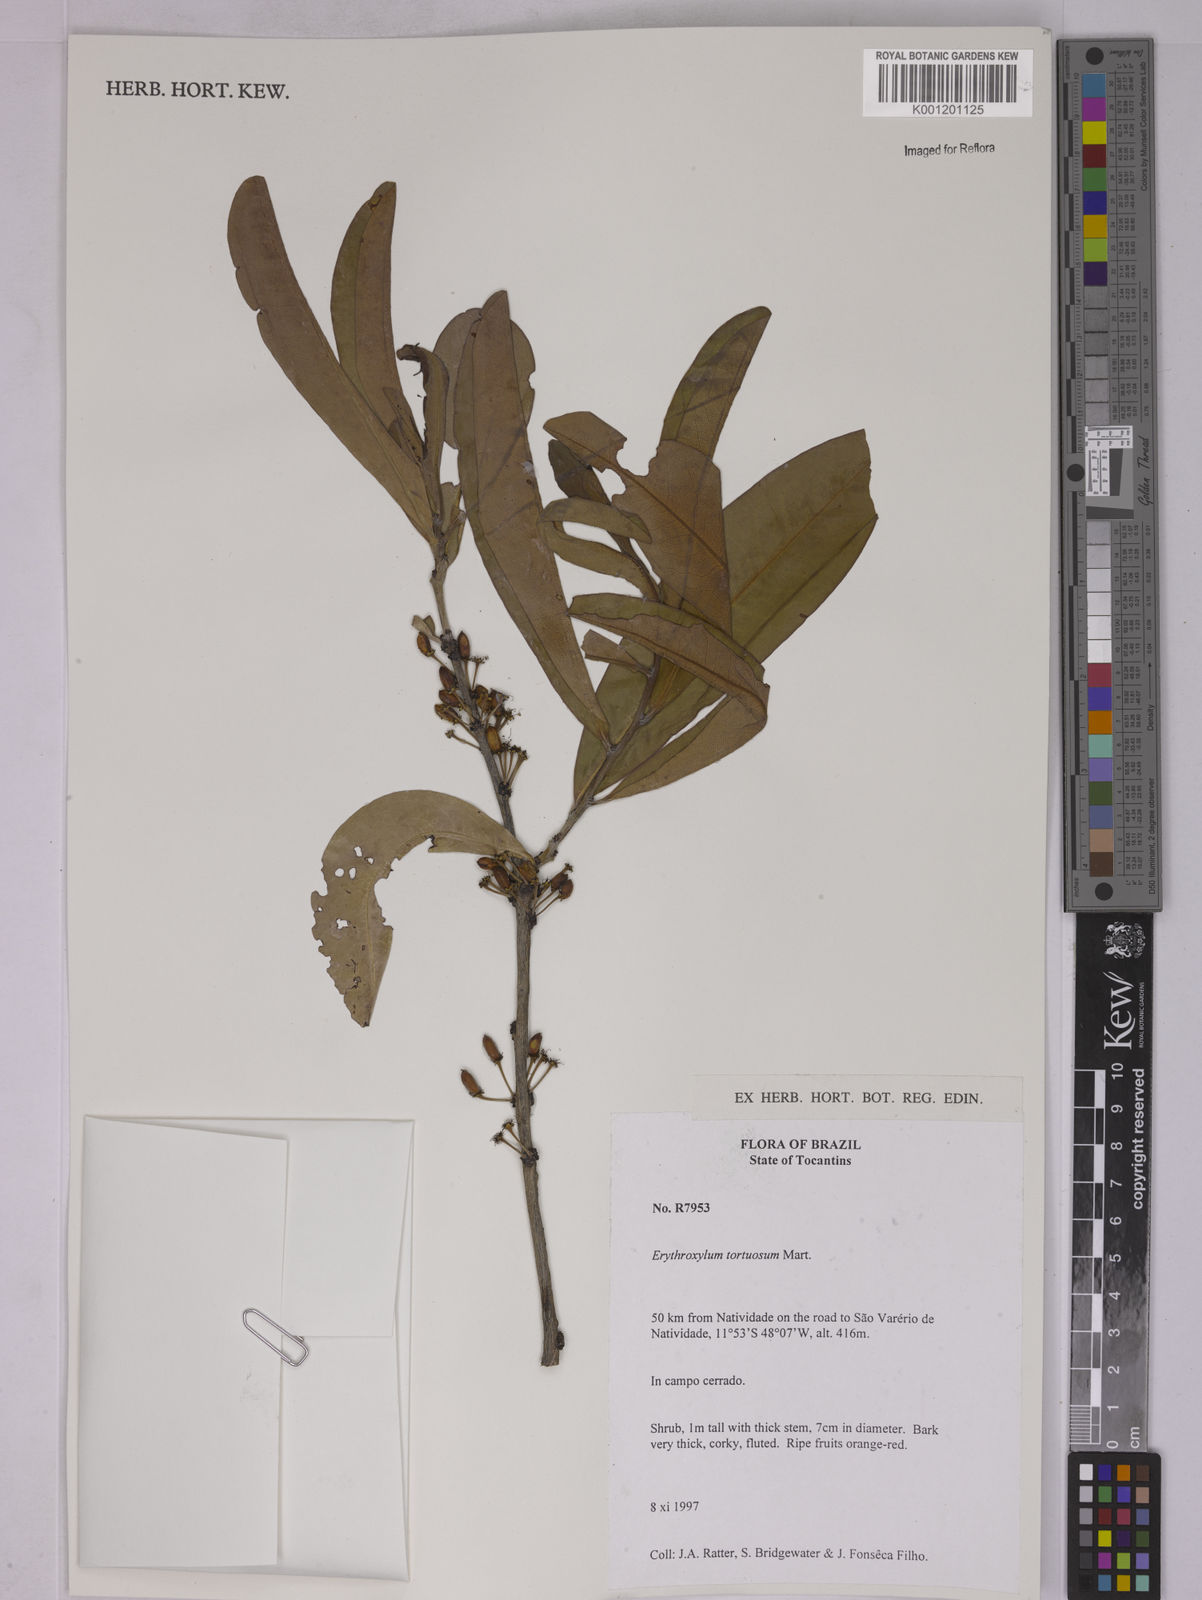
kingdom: Plantae
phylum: Tracheophyta
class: Magnoliopsida
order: Malpighiales
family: Erythroxylaceae
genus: Erythroxylum
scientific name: Erythroxylum tortuosum
